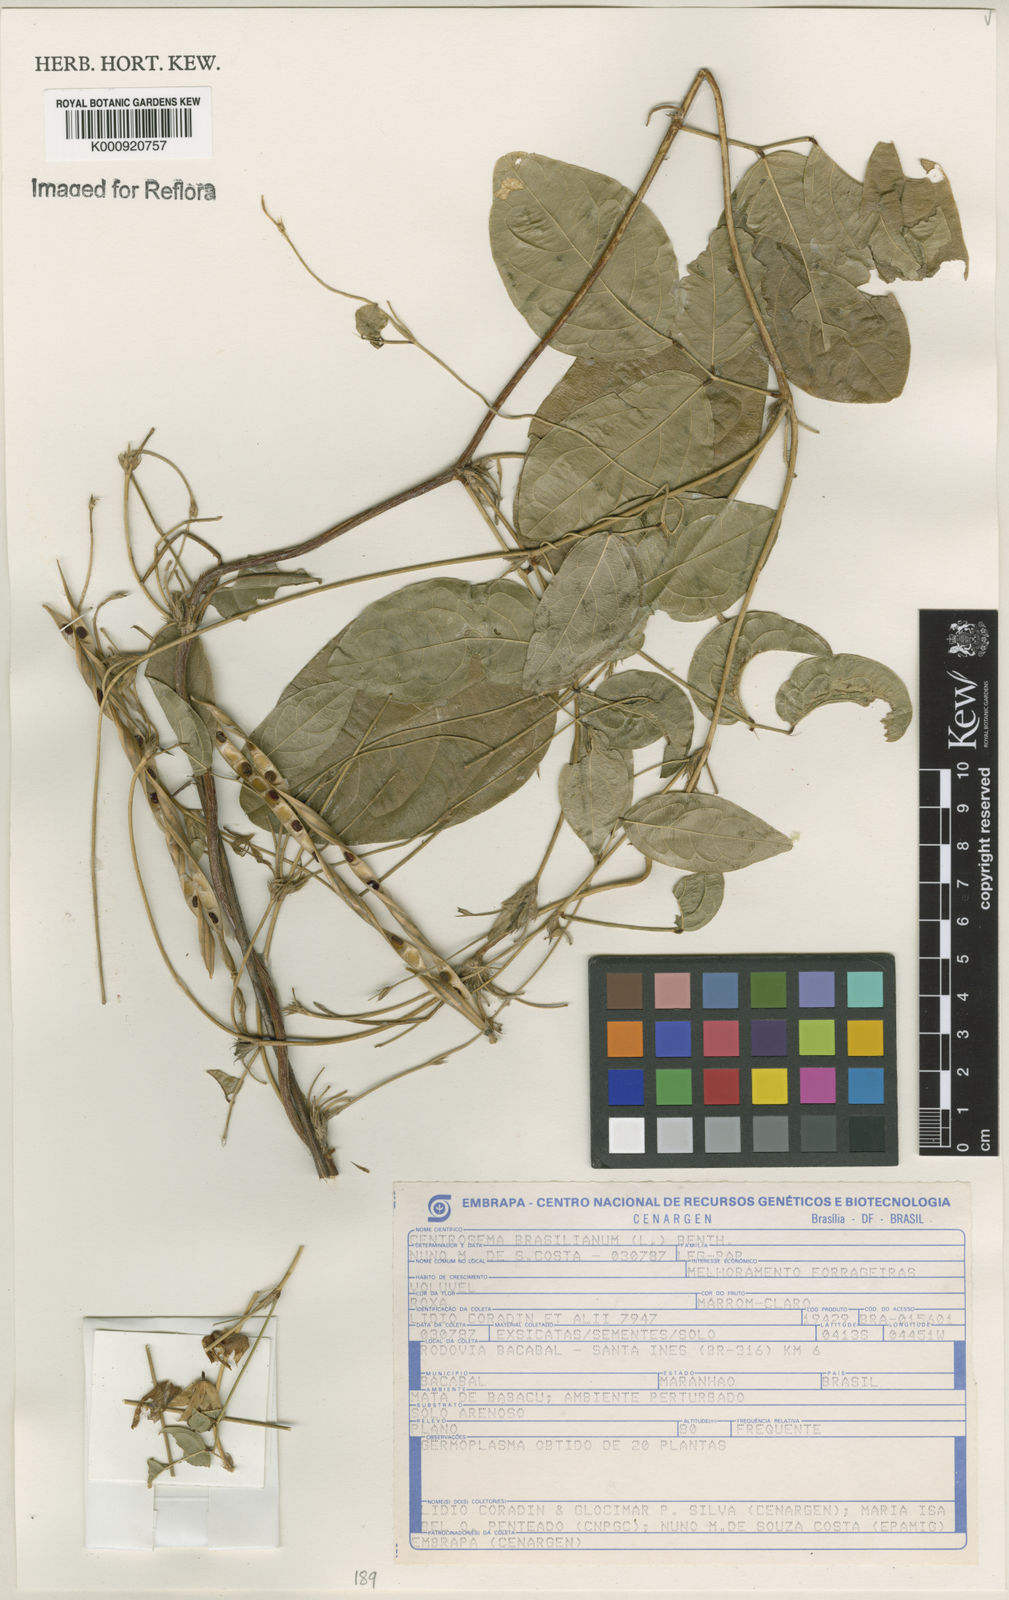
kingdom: Plantae
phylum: Tracheophyta
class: Magnoliopsida
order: Fabales
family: Fabaceae
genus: Centrosema
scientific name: Centrosema brasilianum
